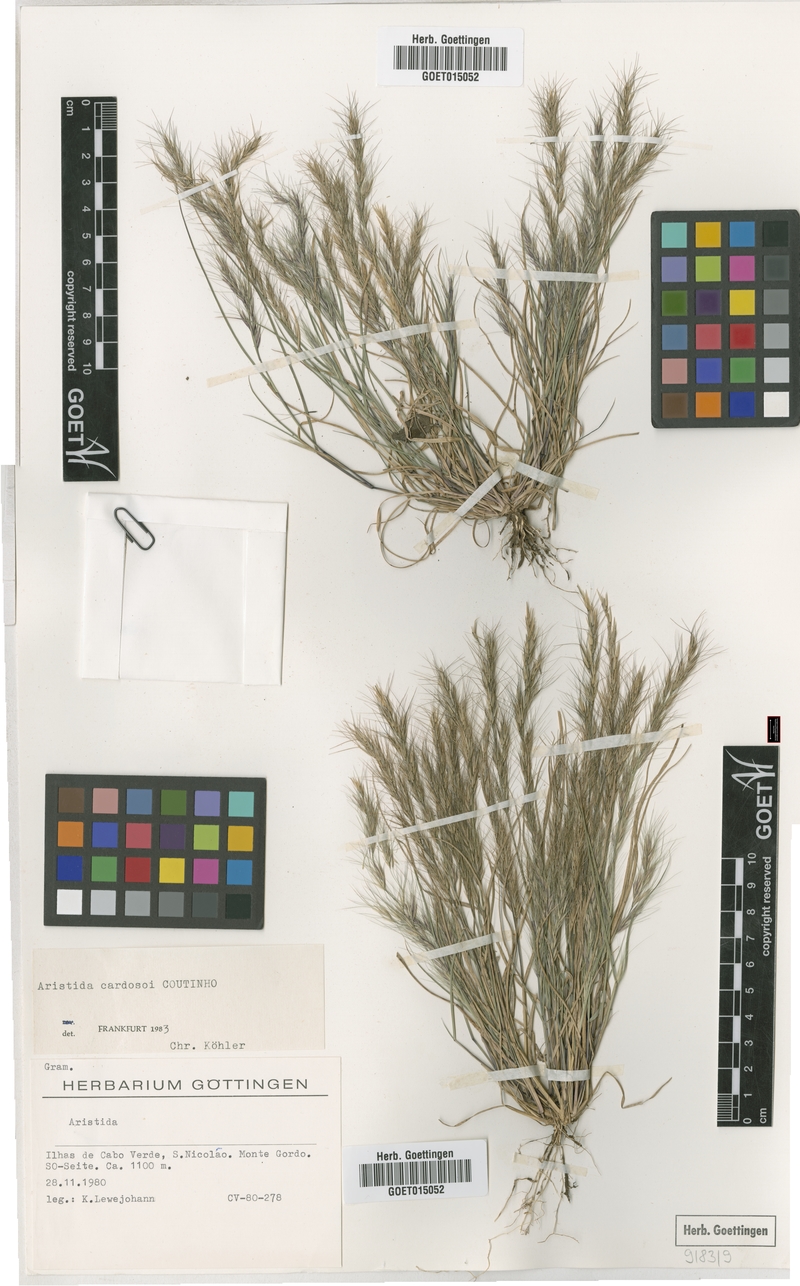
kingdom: Plantae
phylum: Tracheophyta
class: Liliopsida
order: Poales
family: Poaceae
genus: Aristida
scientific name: Aristida adscensionis
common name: Sixweeks threeawn
